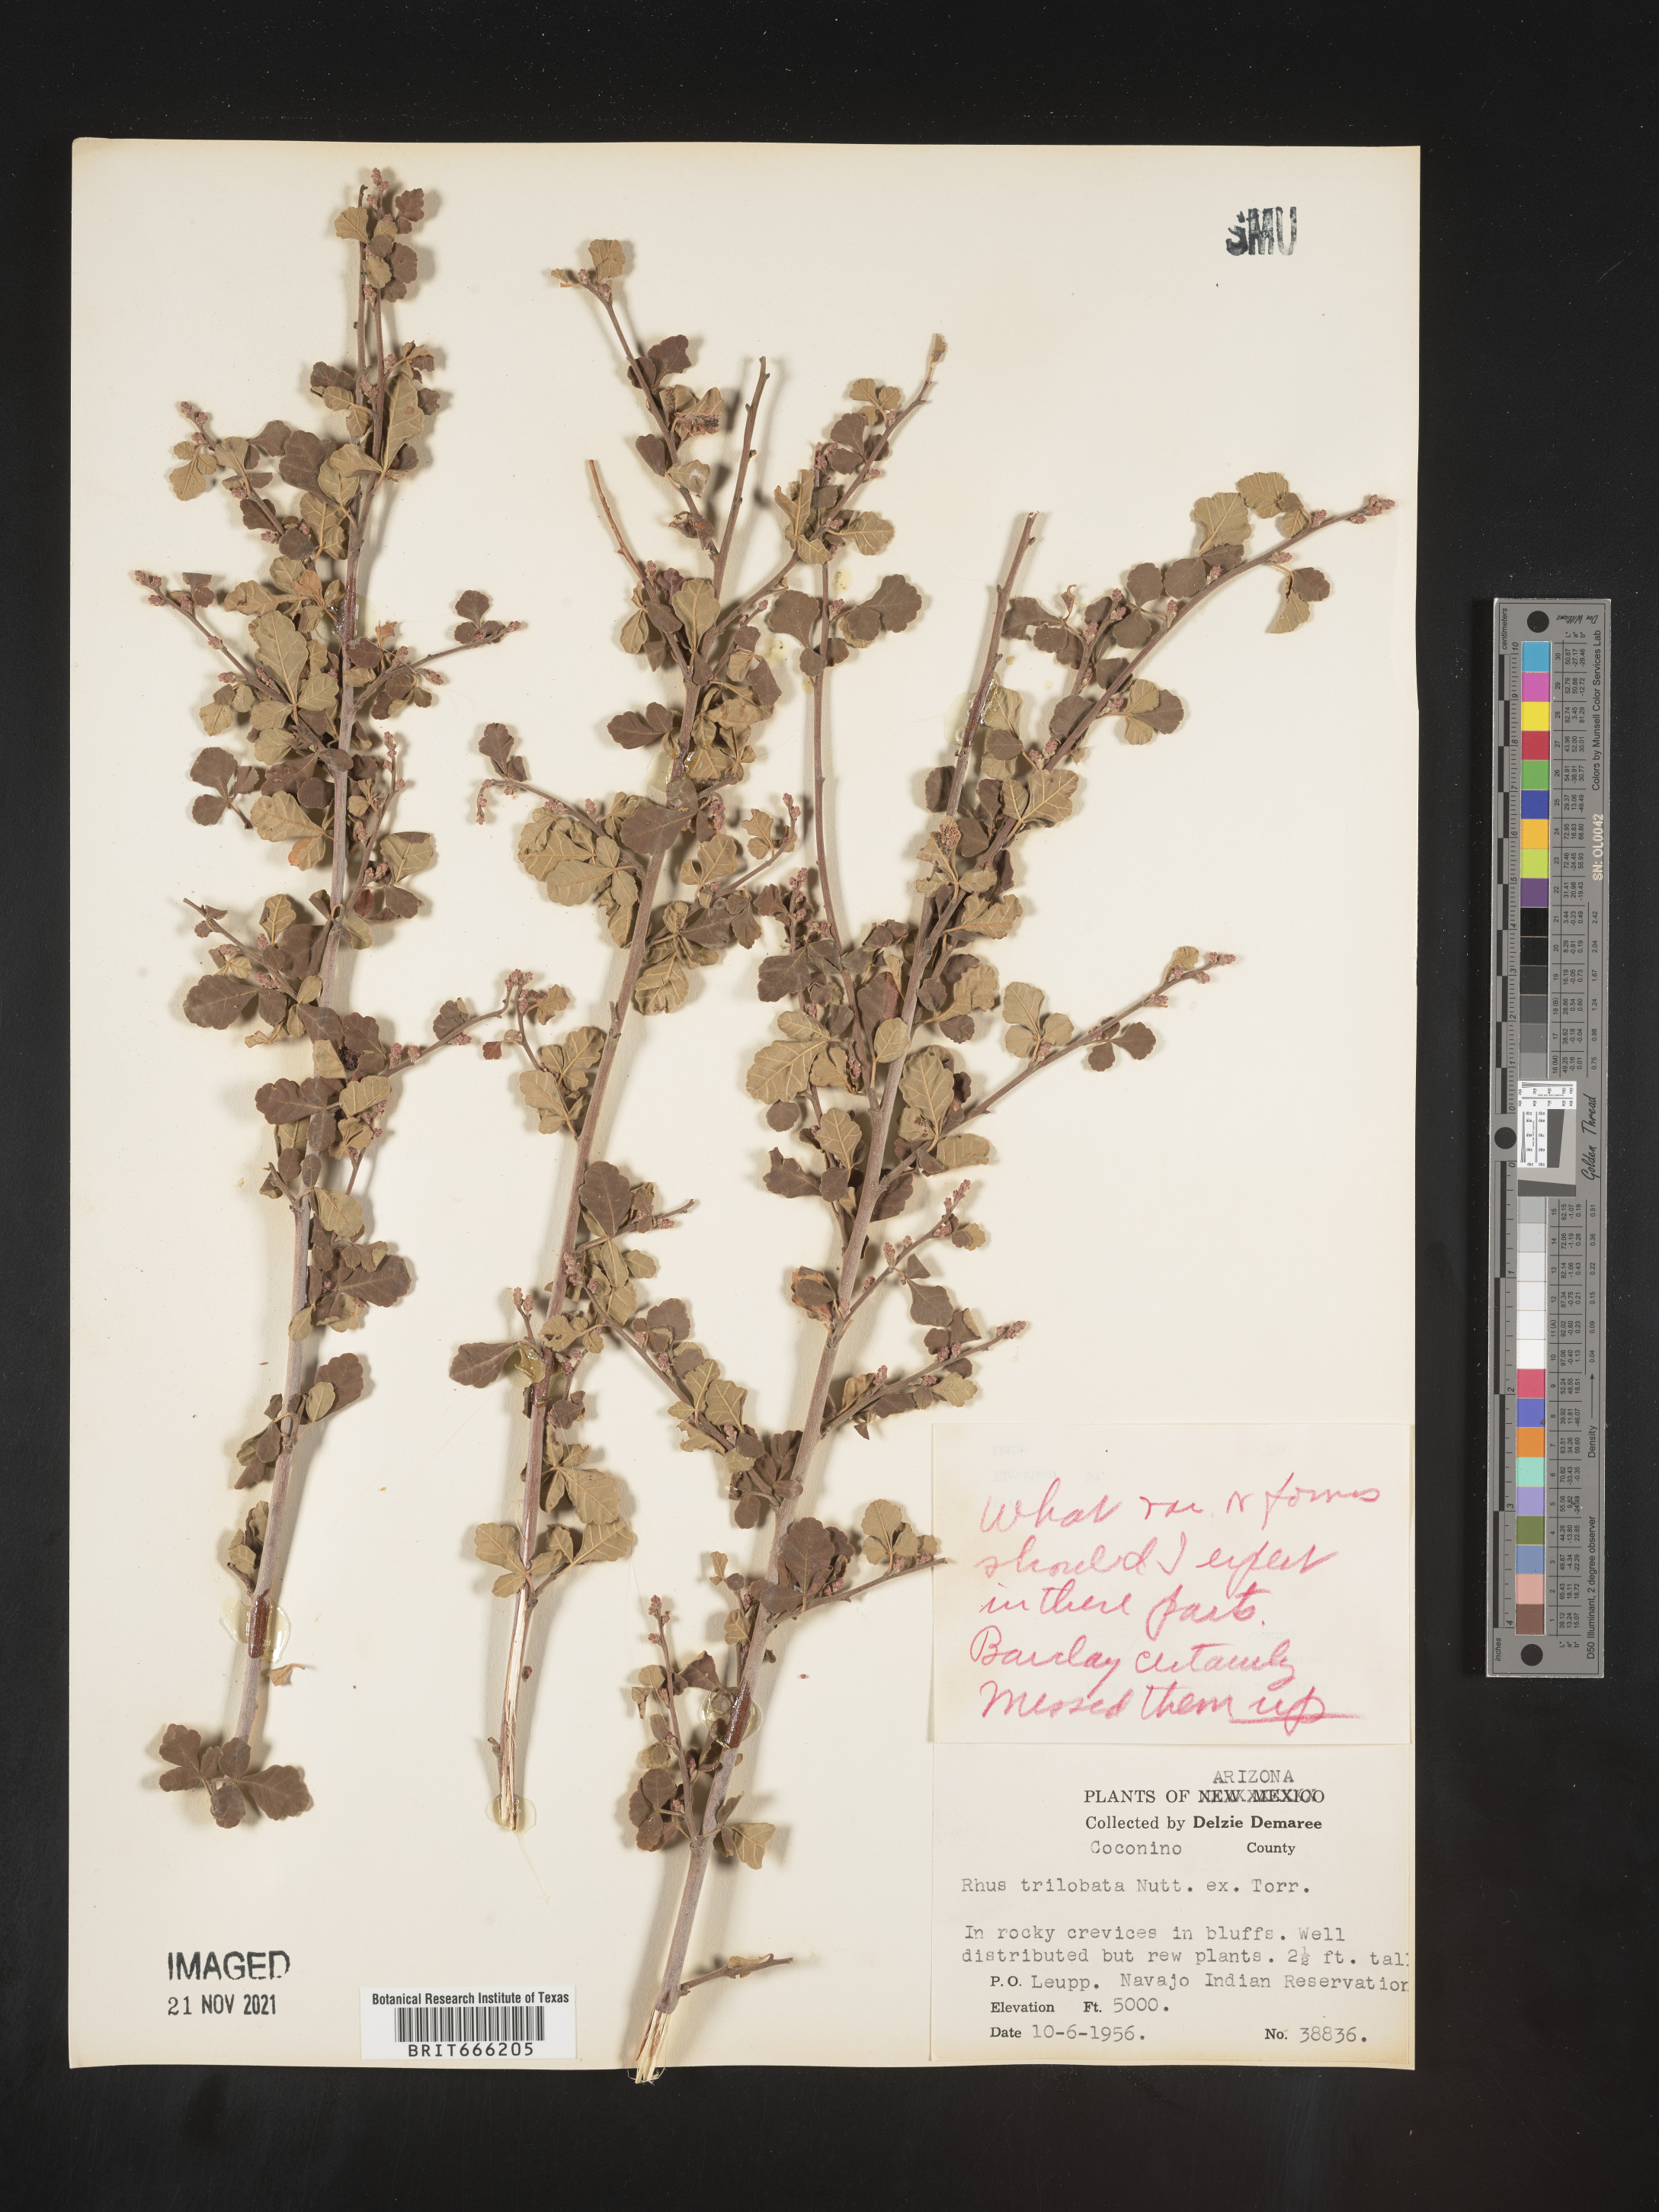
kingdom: Plantae
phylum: Tracheophyta
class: Magnoliopsida
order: Sapindales
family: Anacardiaceae
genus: Rhus
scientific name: Rhus trilobata
